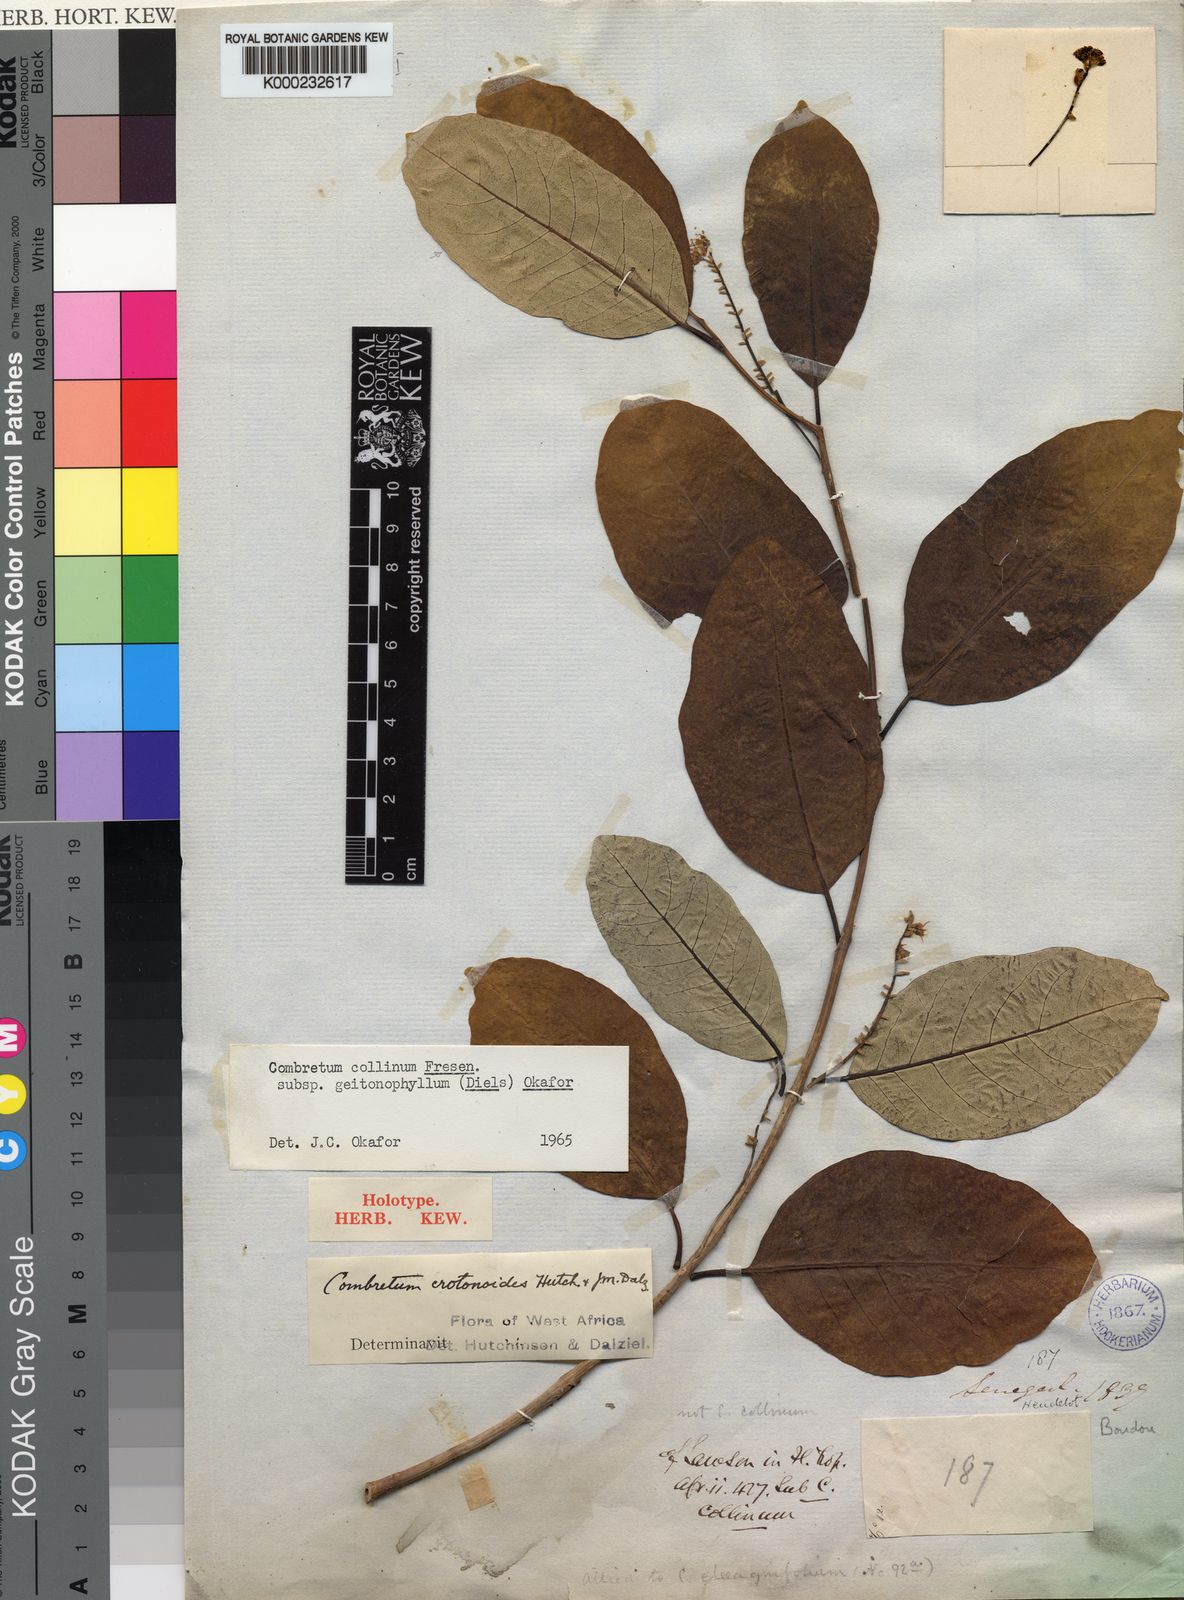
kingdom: Plantae
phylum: Tracheophyta
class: Magnoliopsida
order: Myrtales
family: Combretaceae
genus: Combretum
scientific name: Combretum collinum
